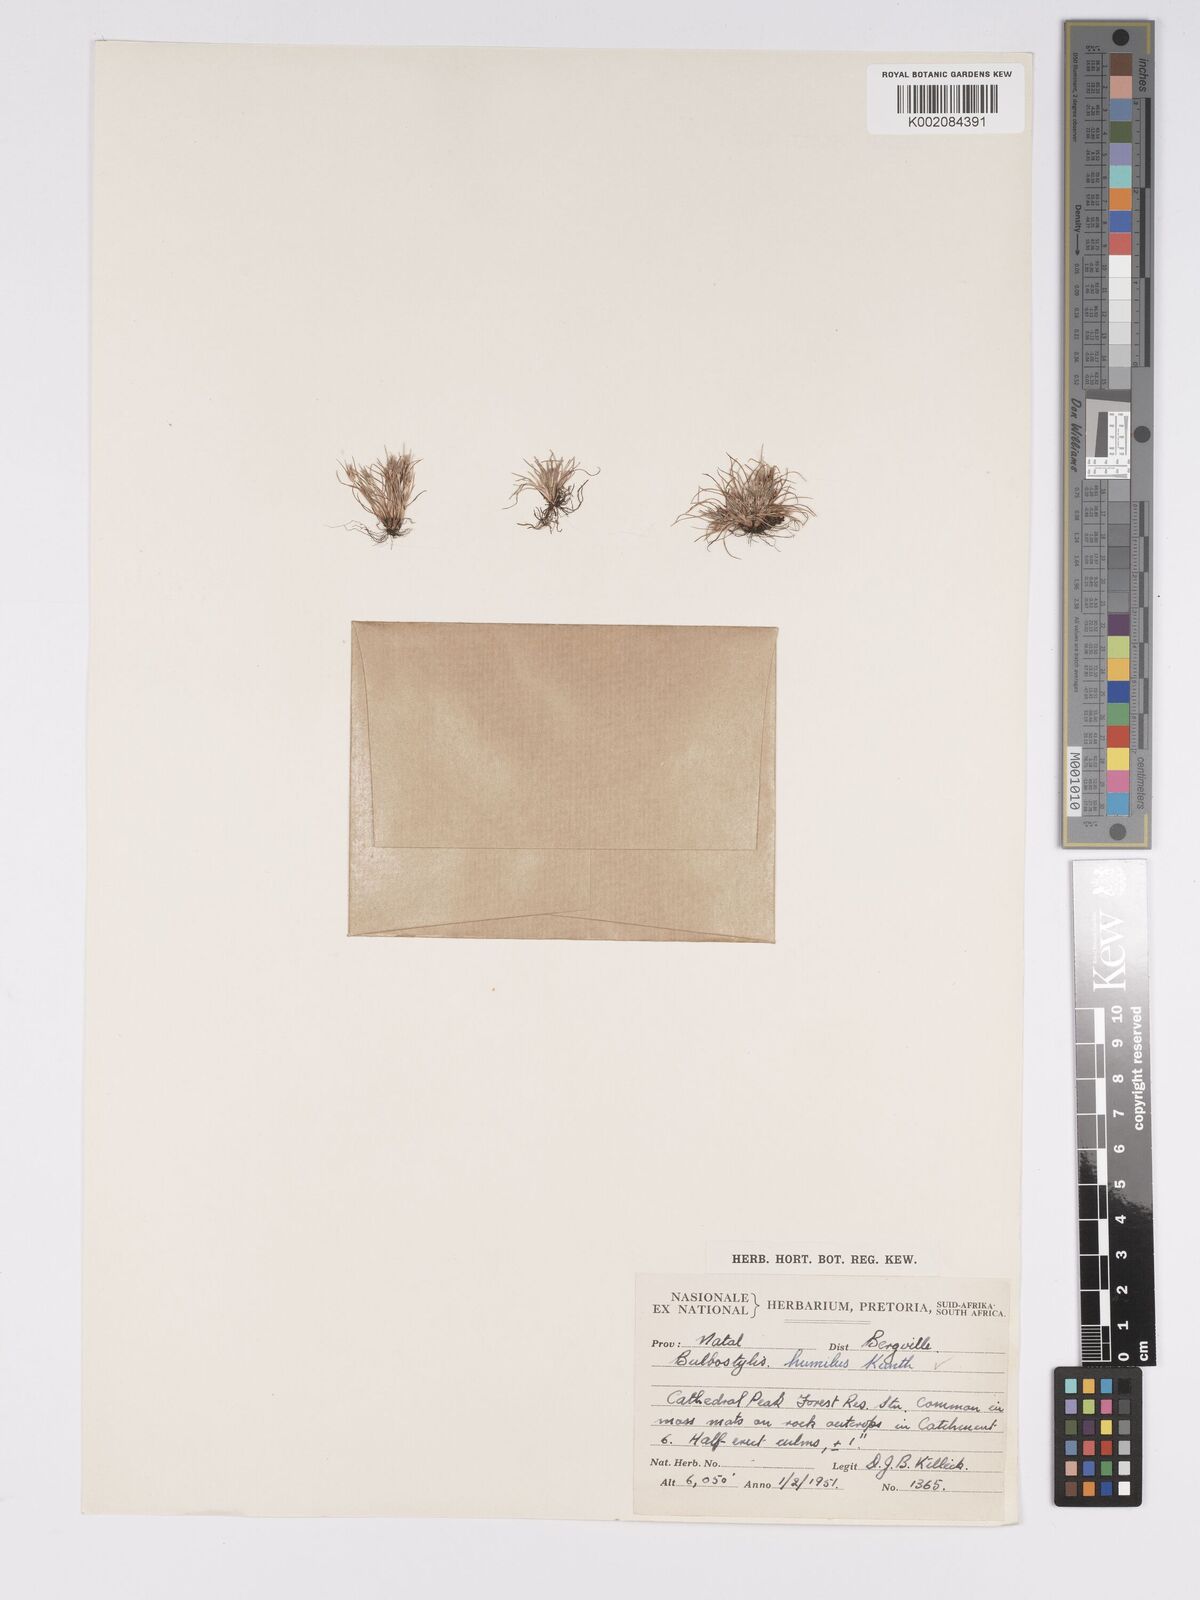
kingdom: Plantae
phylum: Tracheophyta
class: Liliopsida
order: Poales
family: Cyperaceae
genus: Bulbostylis
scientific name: Bulbostylis humilis
